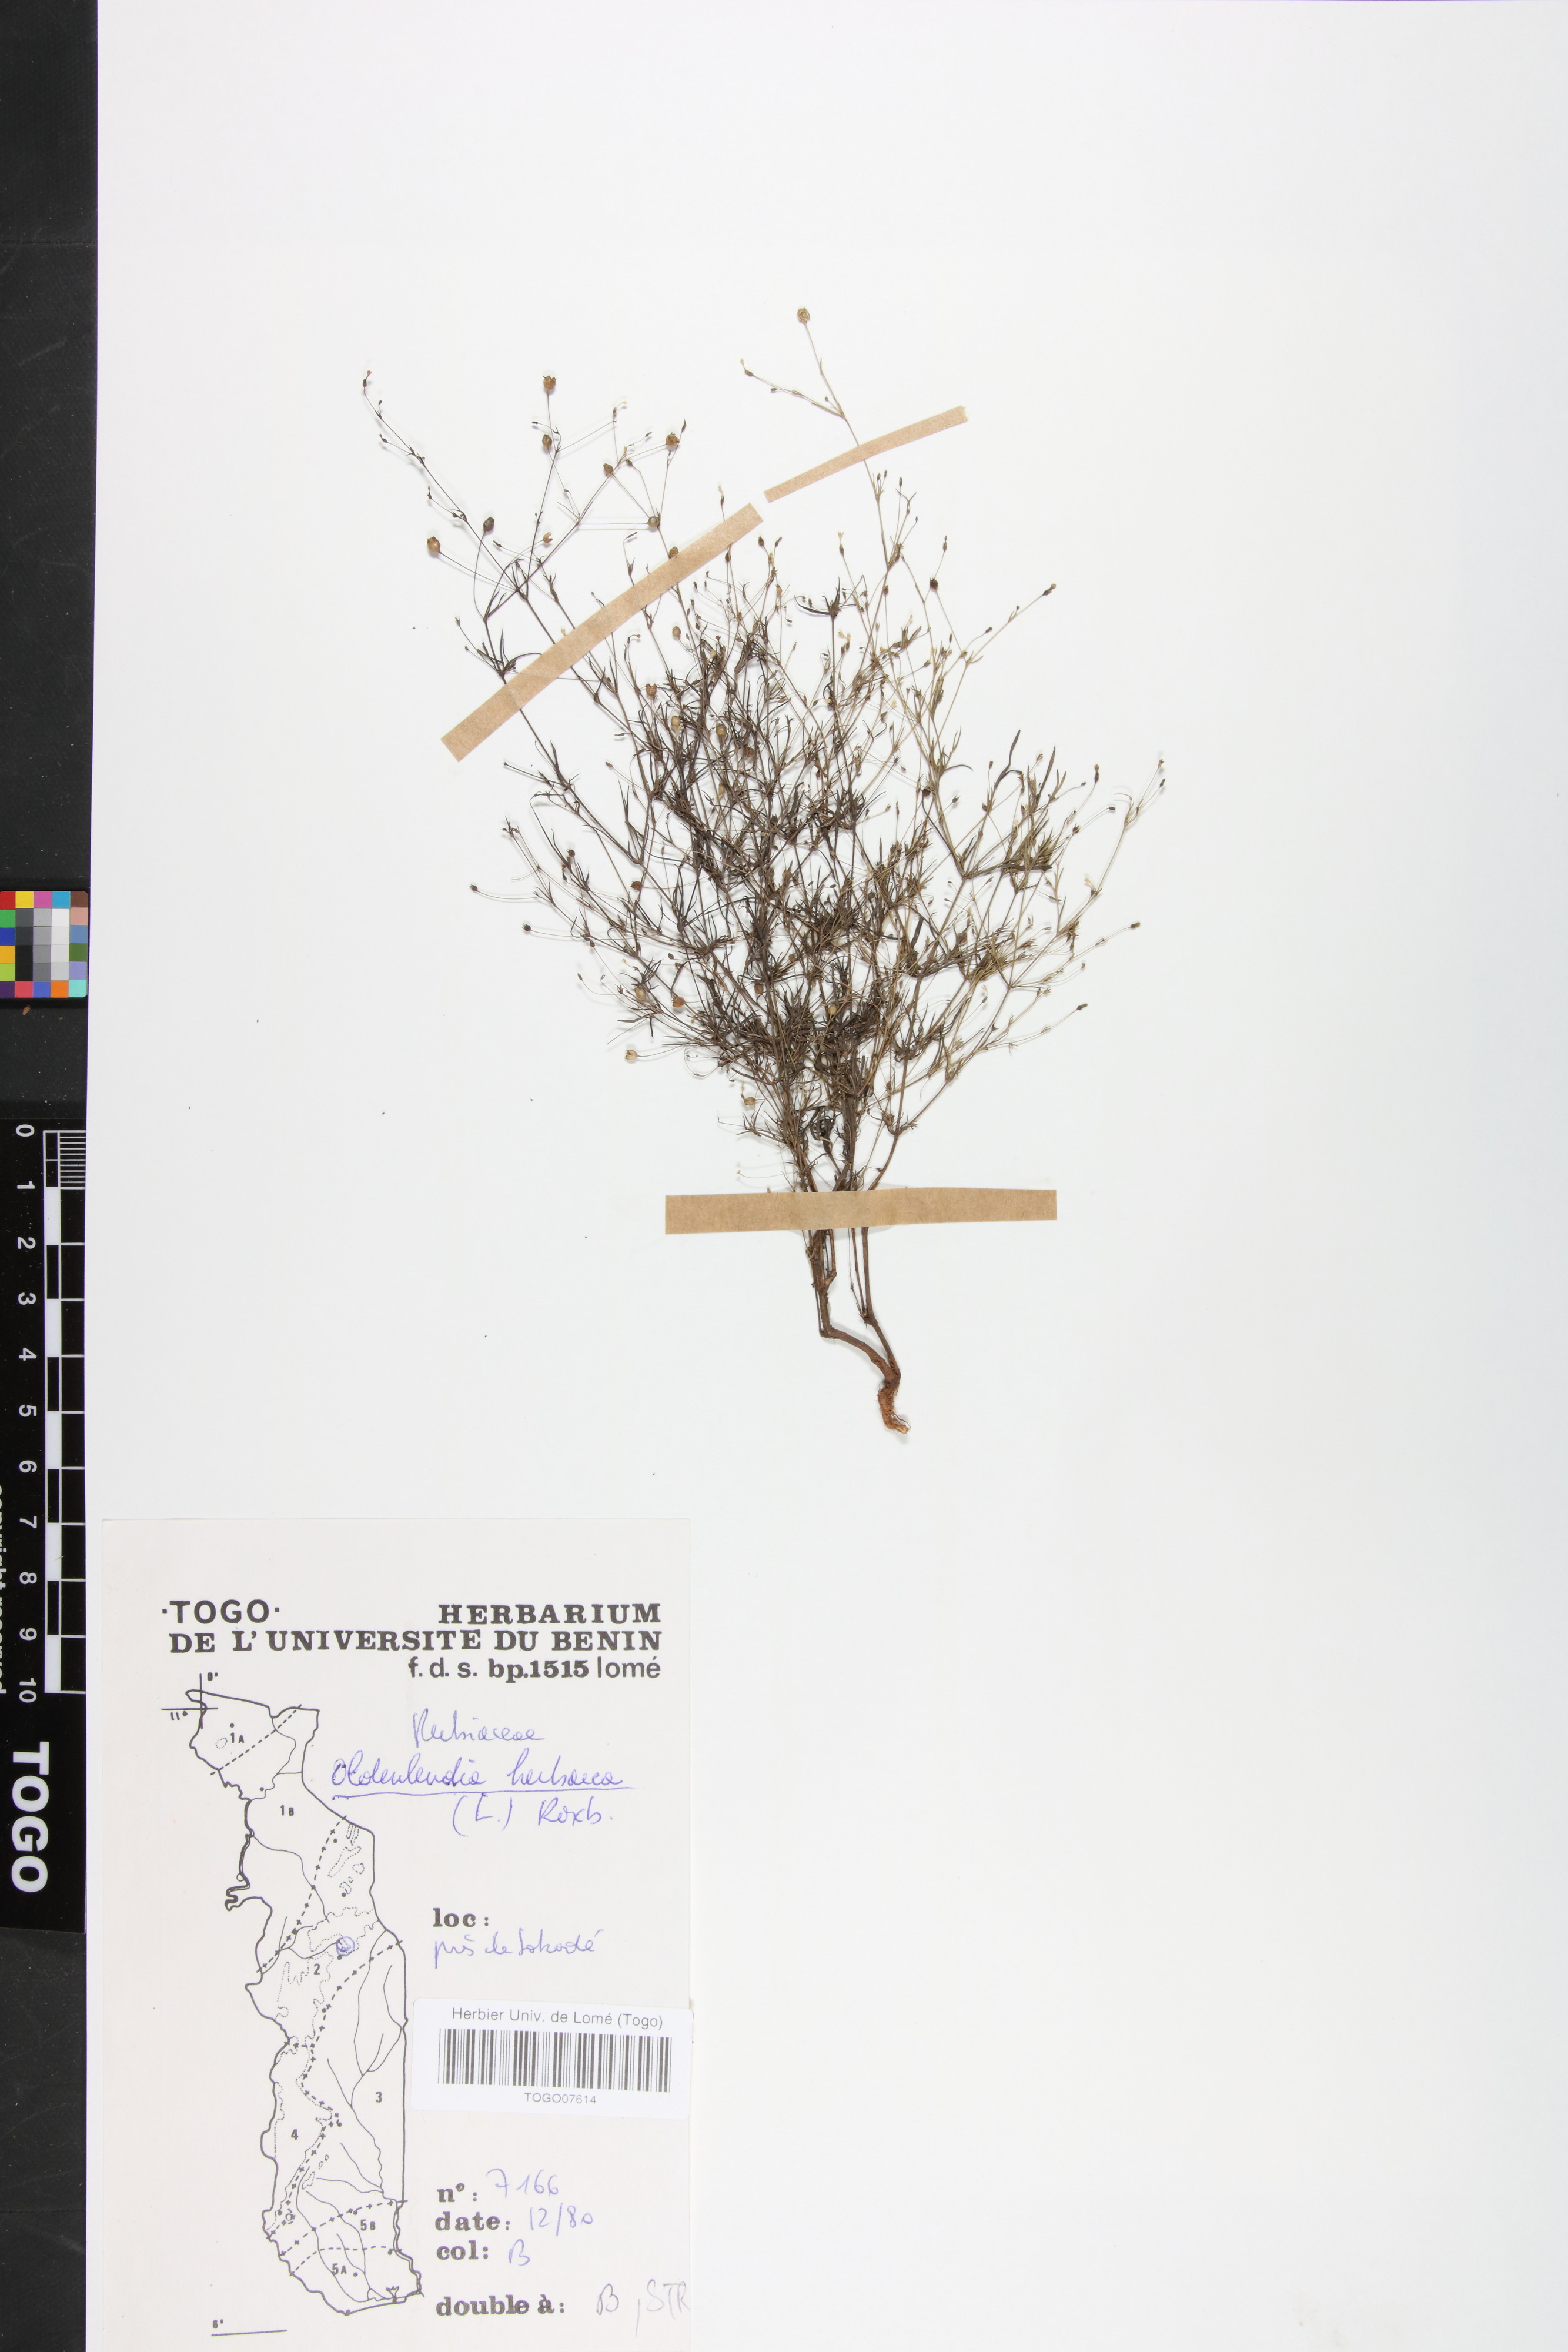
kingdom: Plantae
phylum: Tracheophyta
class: Magnoliopsida
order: Gentianales
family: Rubiaceae
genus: Oldenlandia
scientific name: Oldenlandia herbacea
